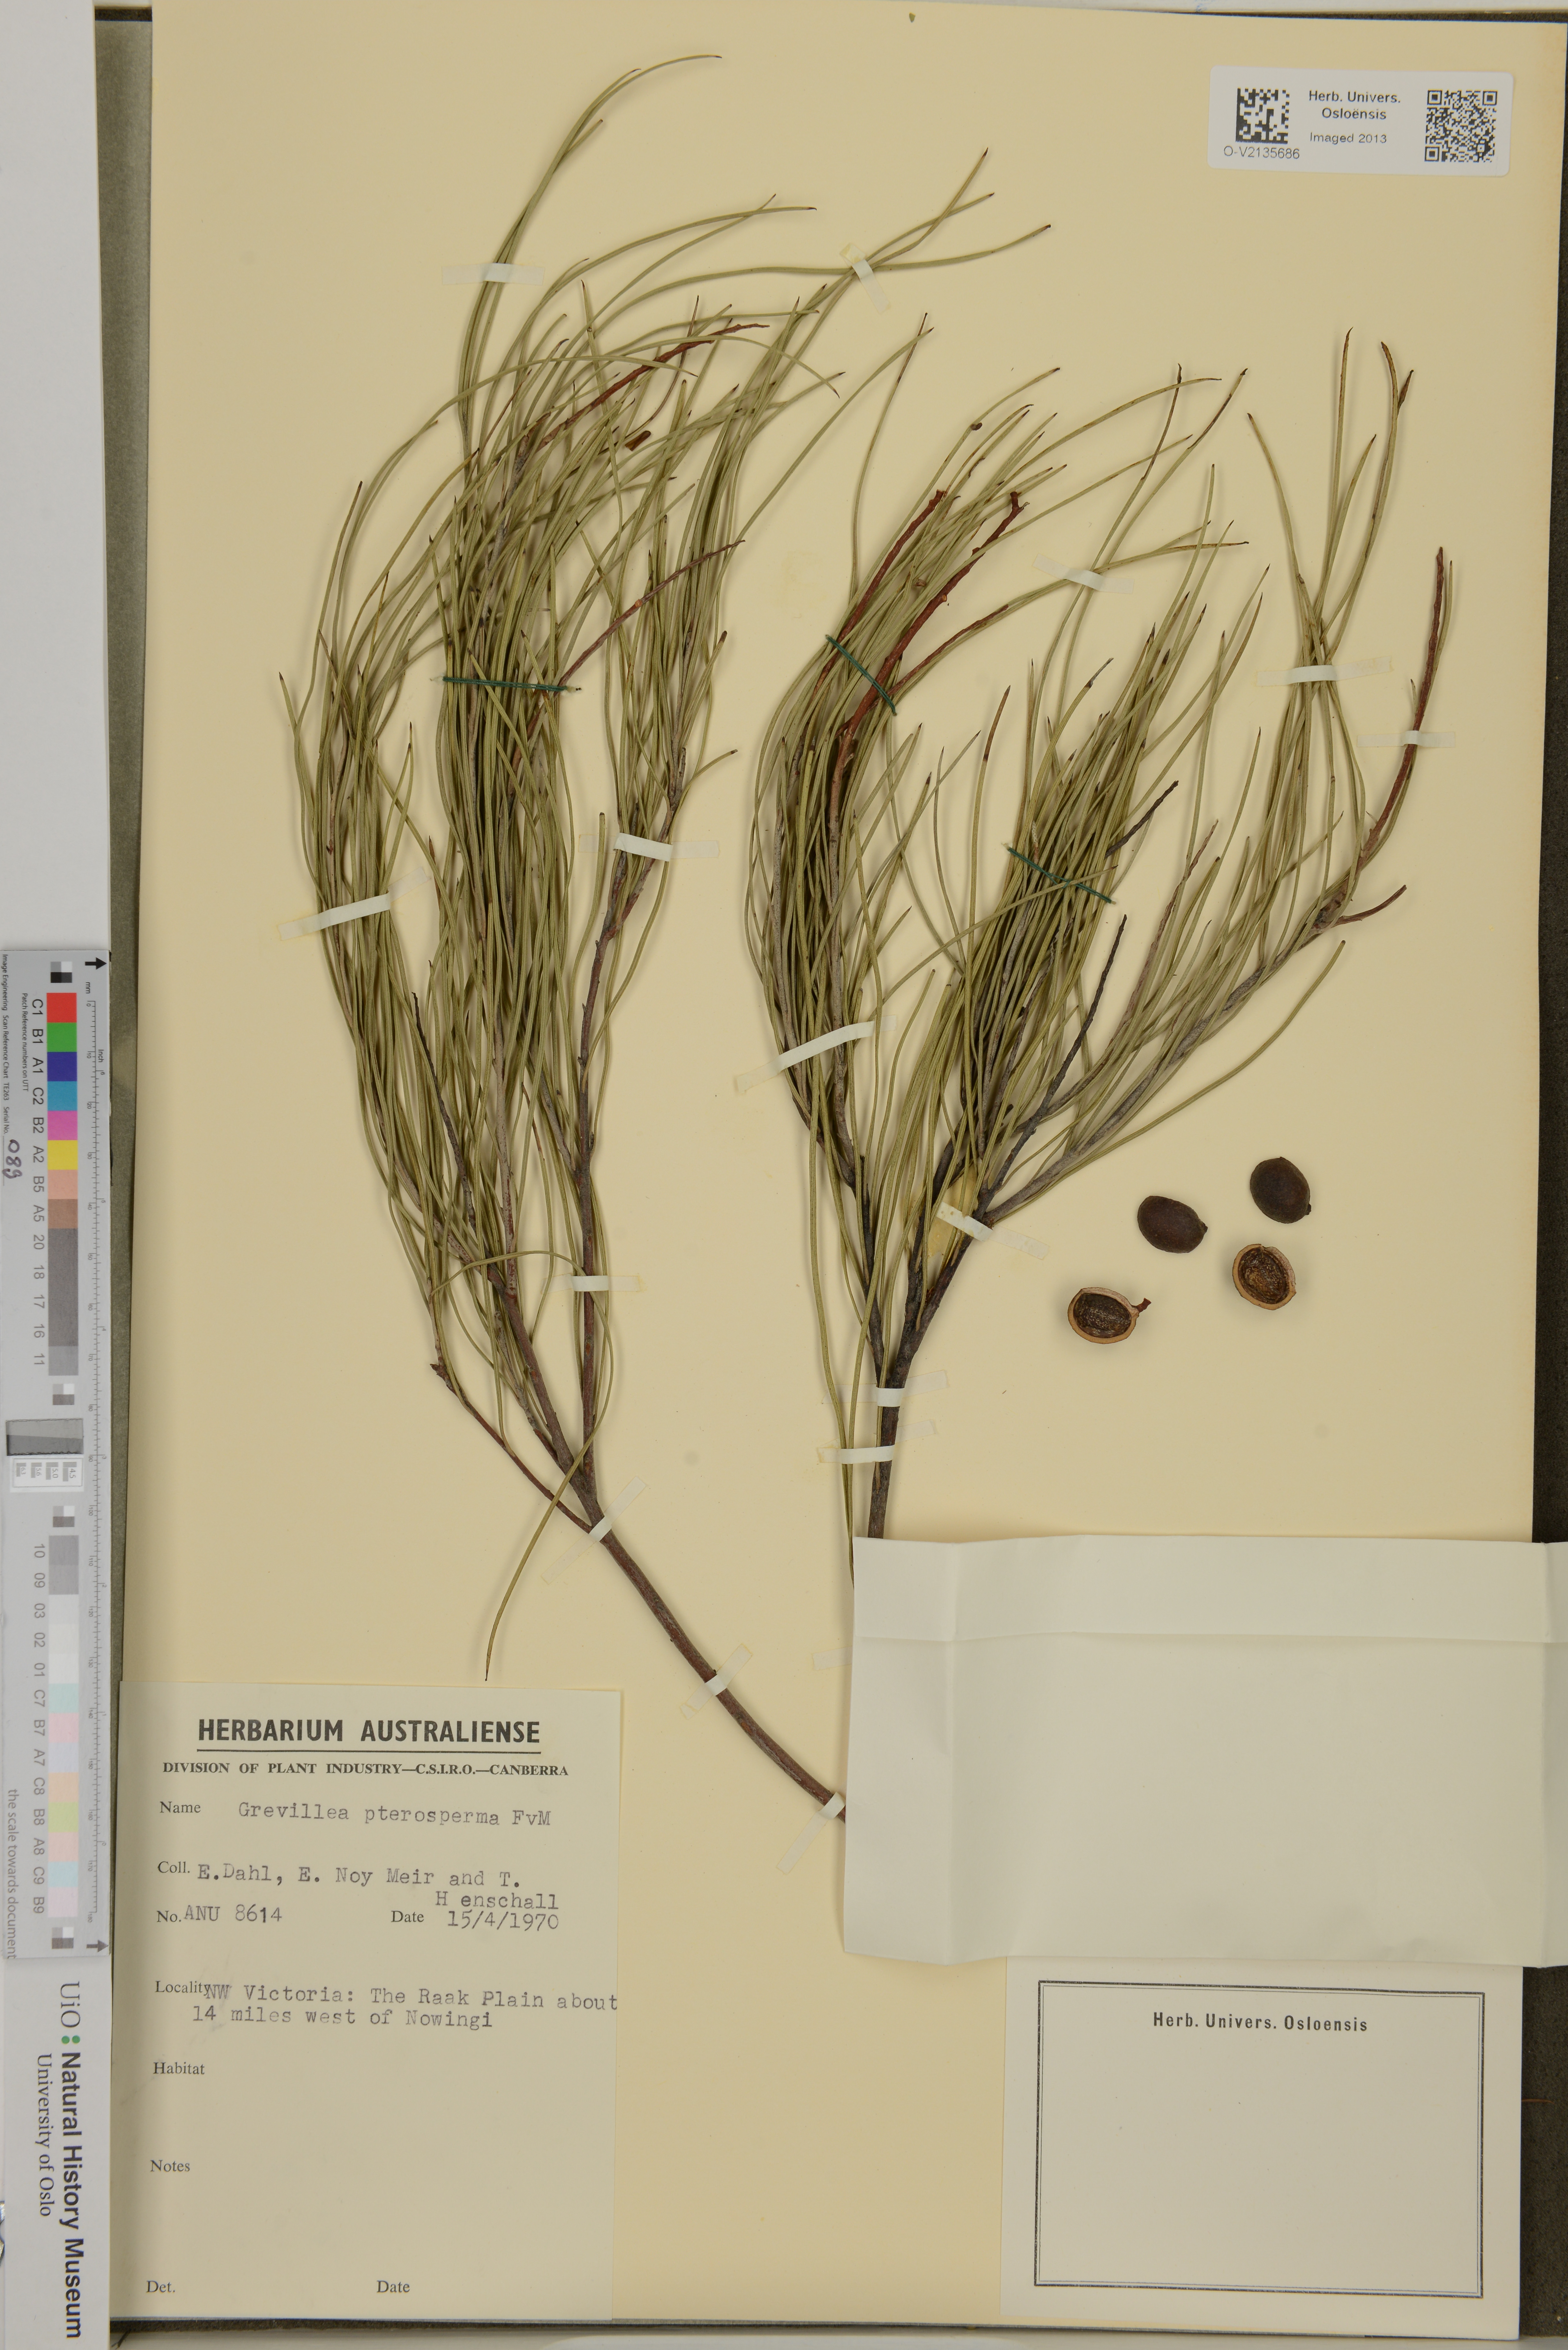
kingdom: Plantae
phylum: Tracheophyta
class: Magnoliopsida
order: Proteales
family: Proteaceae
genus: Grevillea
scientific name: Grevillea pterosperma
